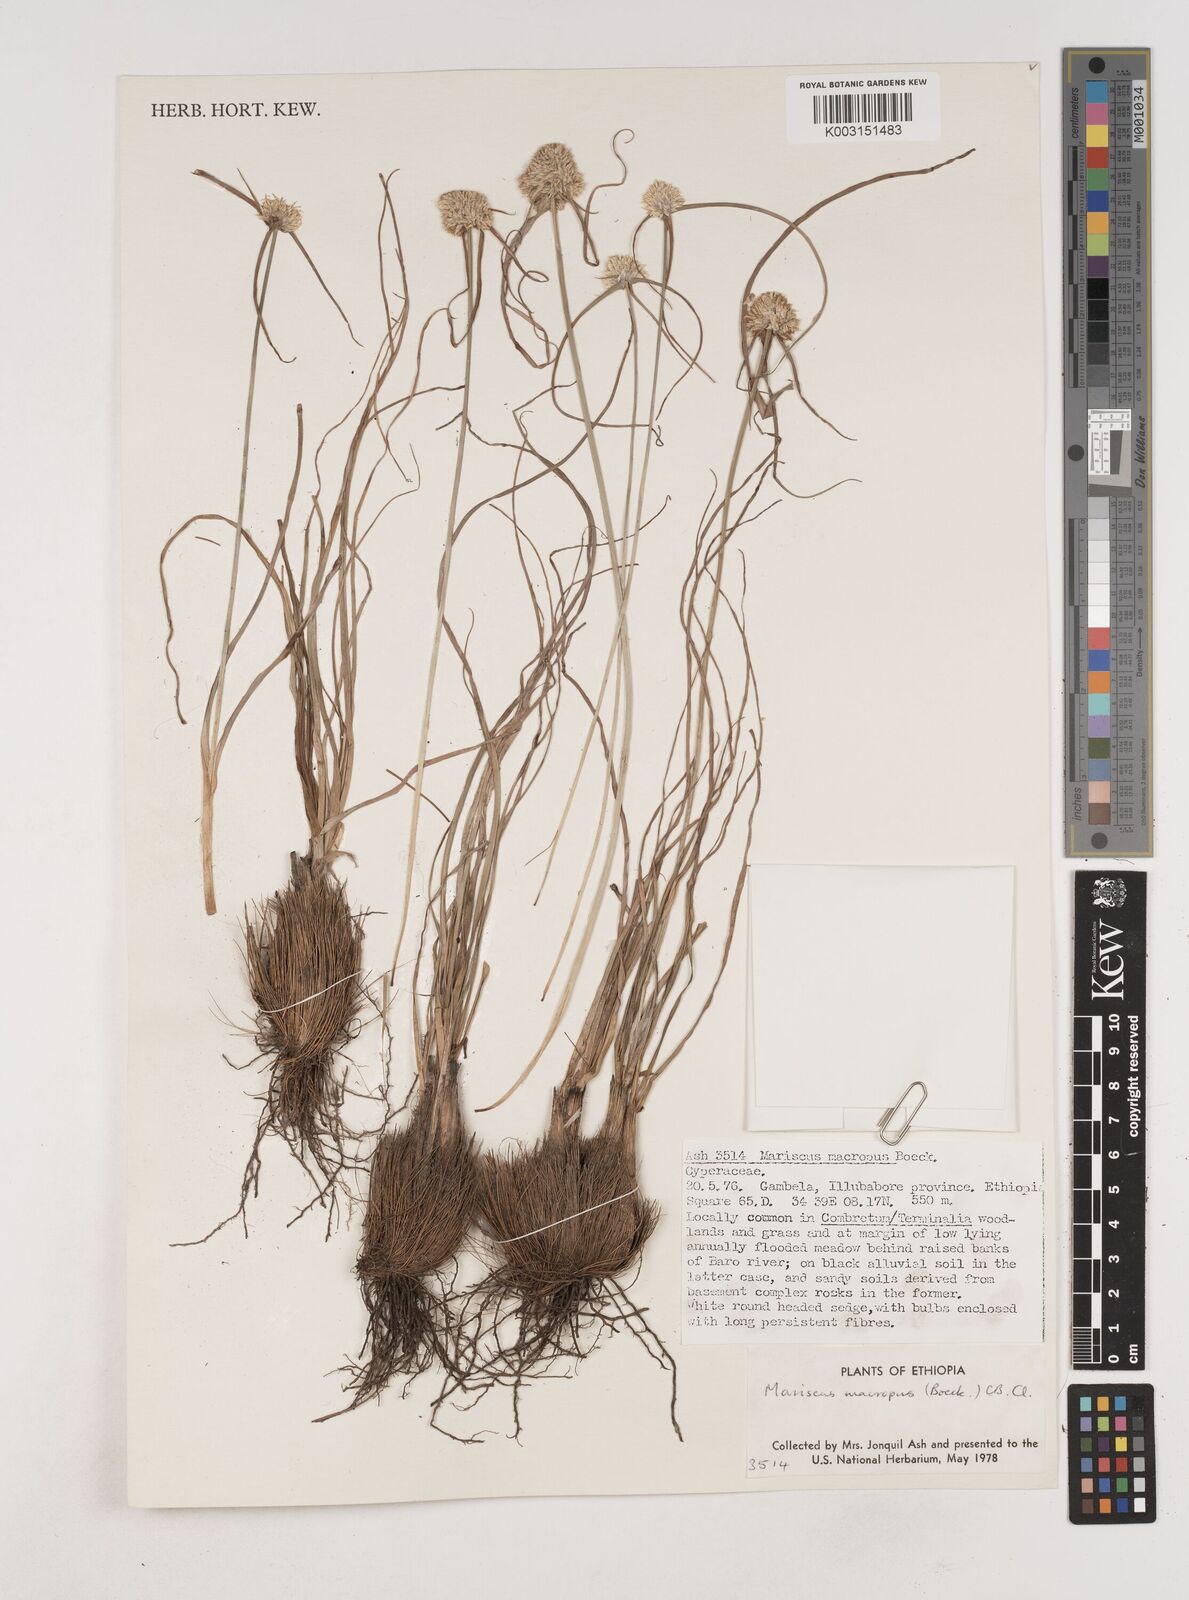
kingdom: Plantae
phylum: Tracheophyta
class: Liliopsida
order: Poales
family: Cyperaceae
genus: Cyperus
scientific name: Cyperus mollipes
